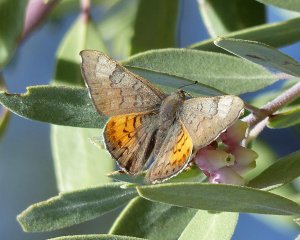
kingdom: Animalia
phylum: Arthropoda
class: Insecta
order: Lepidoptera
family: Lycaenidae
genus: Emesis
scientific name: Emesis zela
